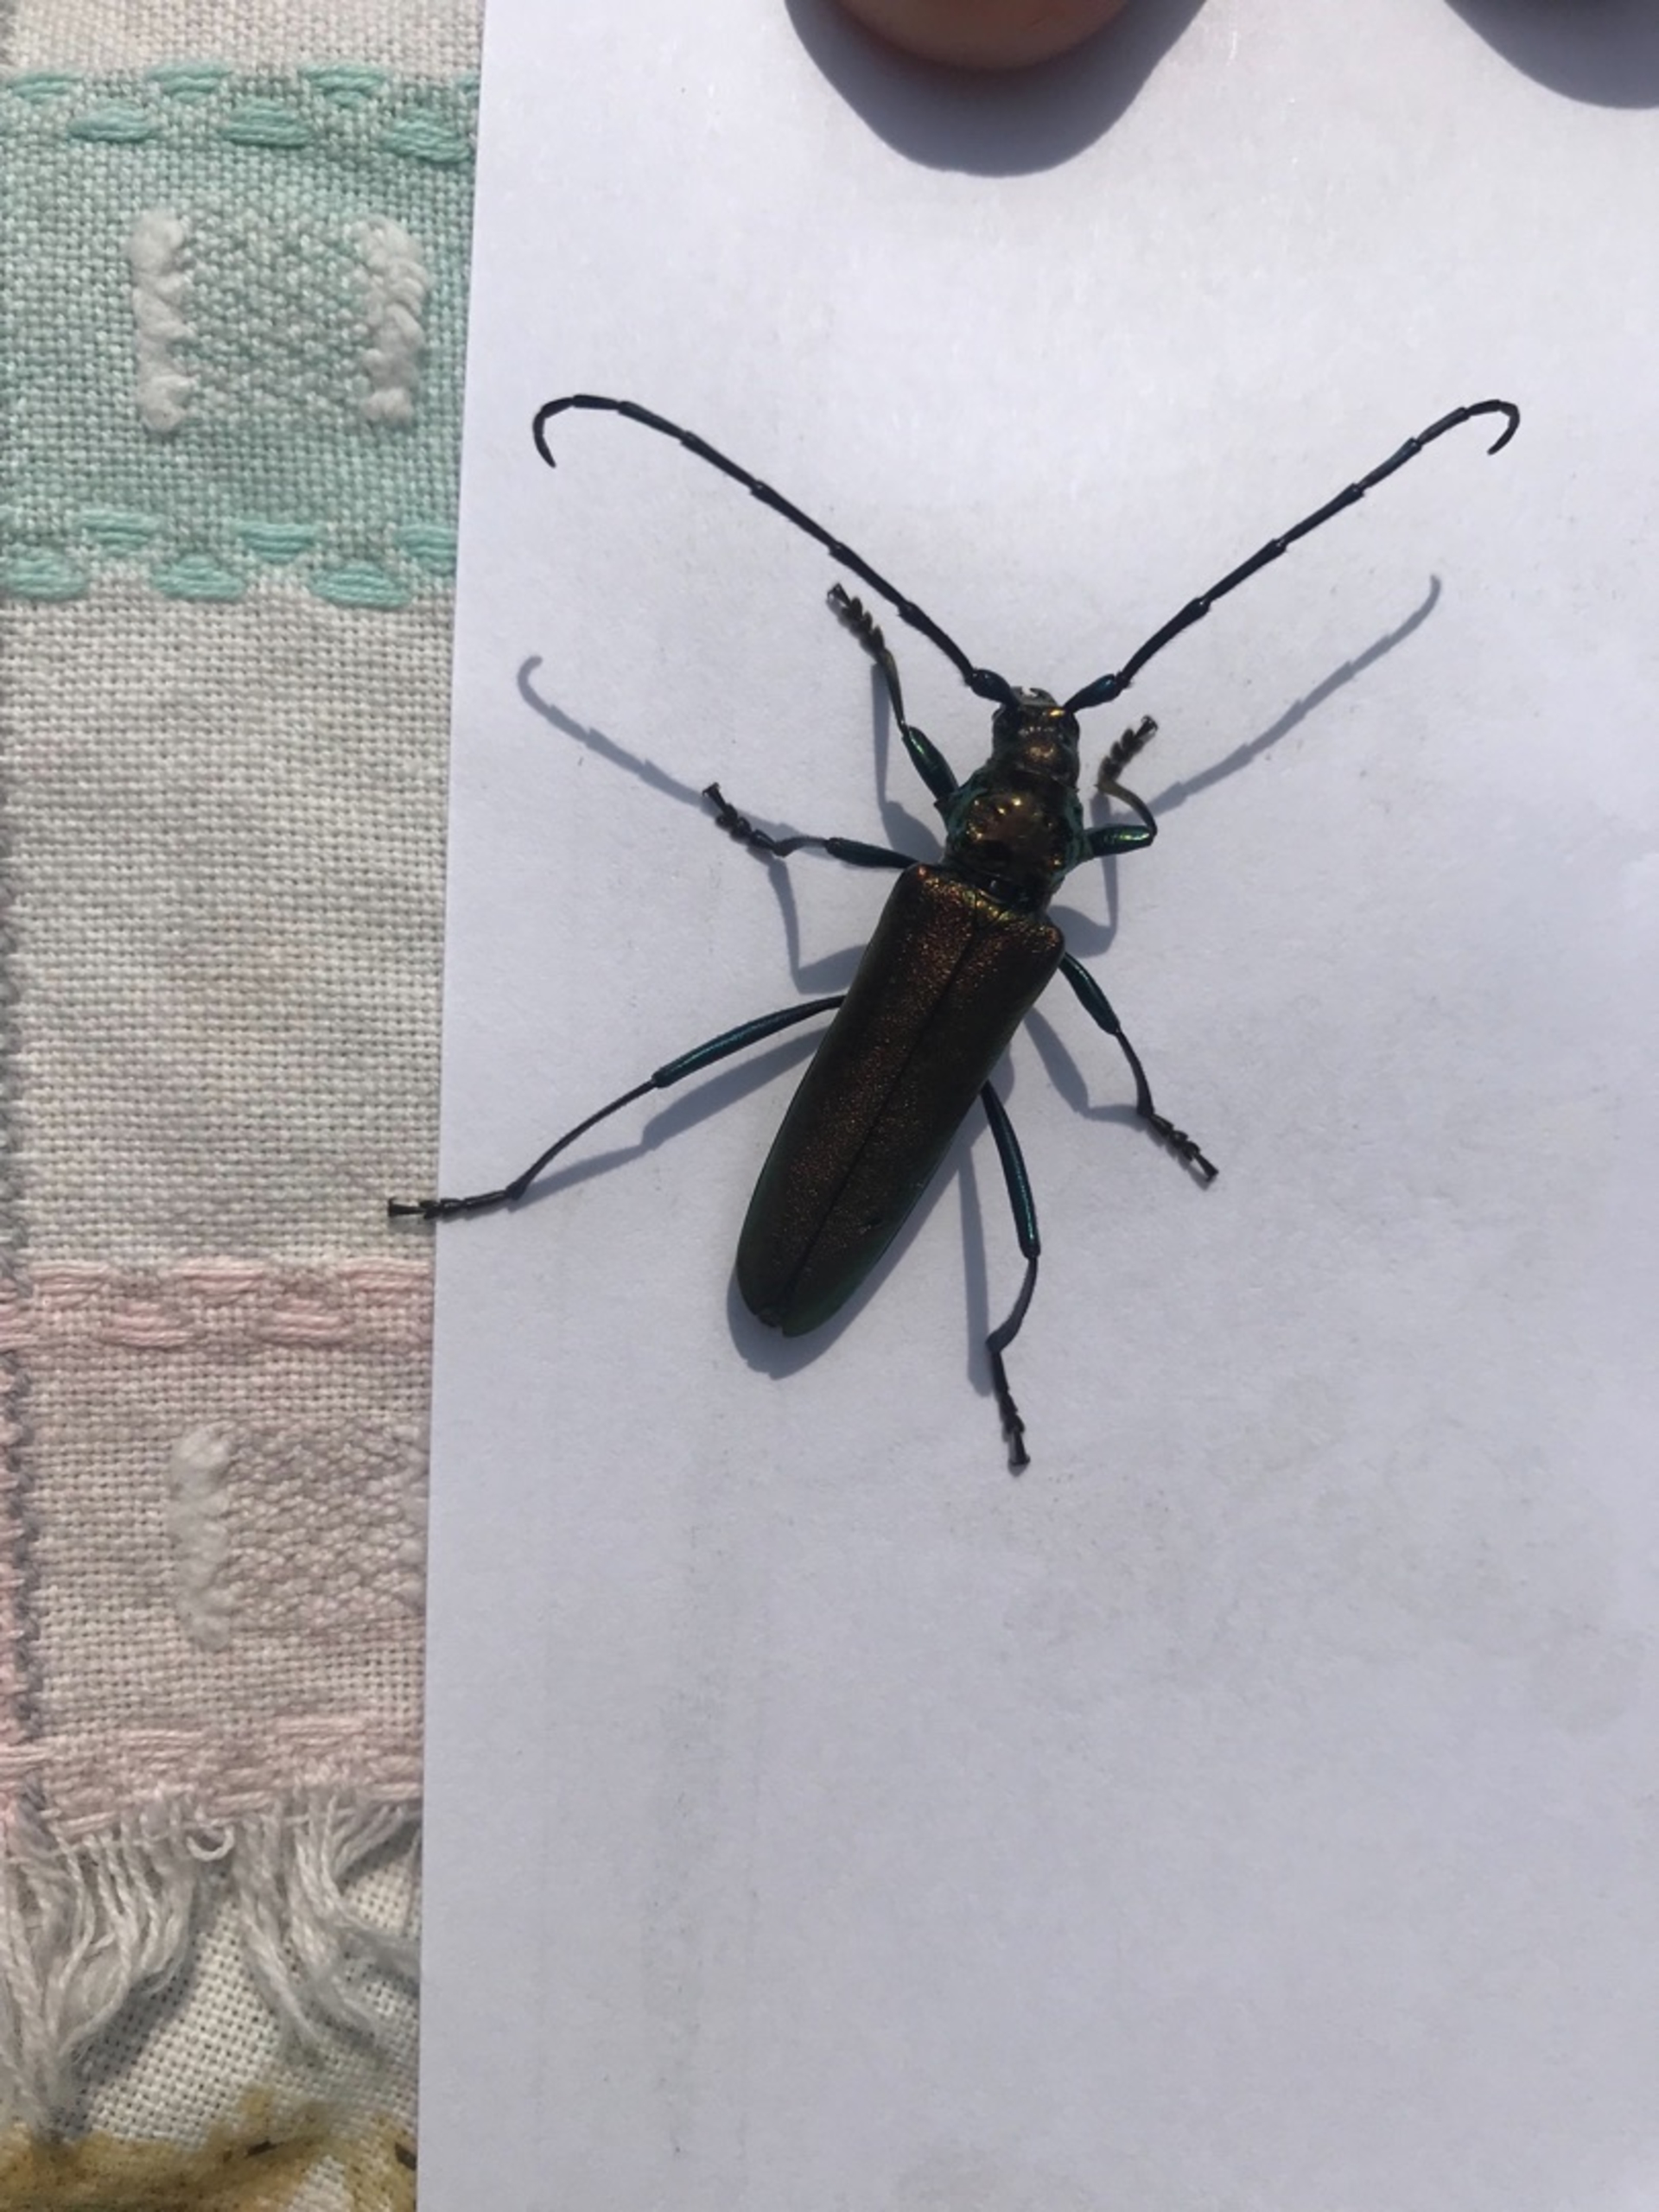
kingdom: Animalia
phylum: Arthropoda
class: Insecta
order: Coleoptera
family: Cerambycidae
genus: Aromia
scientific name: Aromia moschata
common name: Moskusbuk
